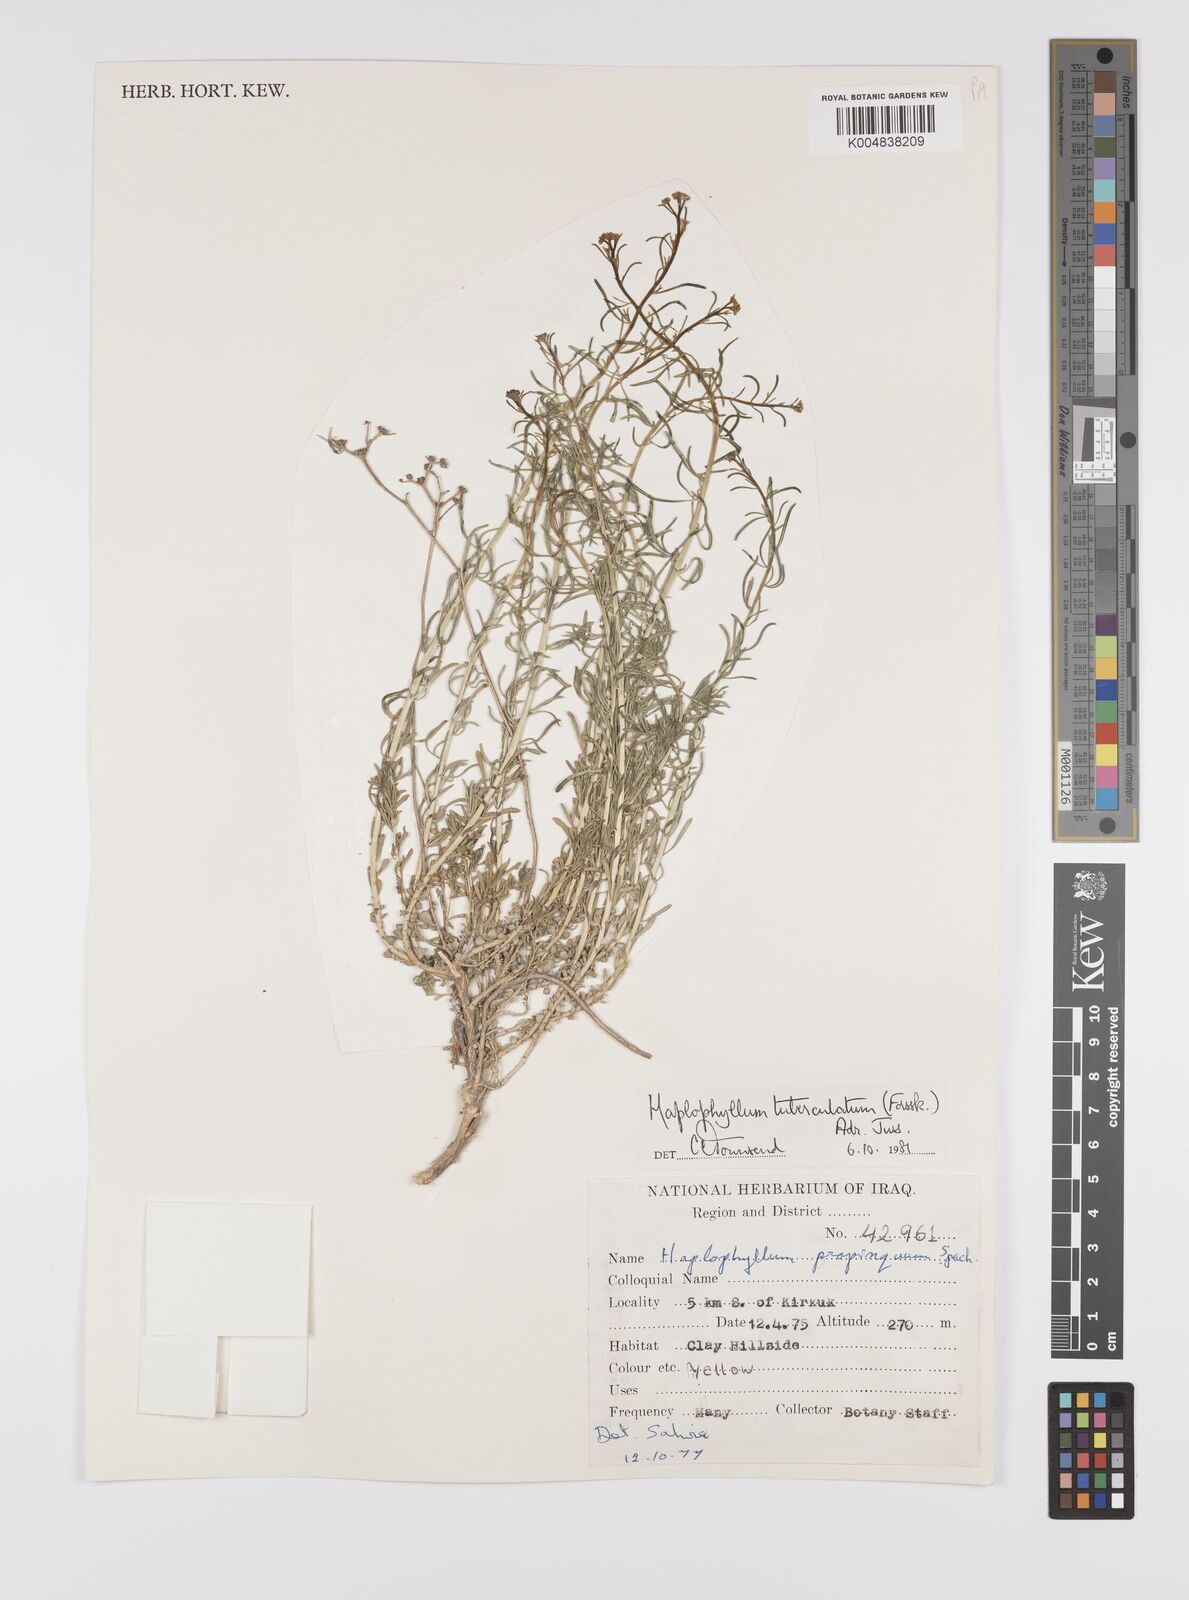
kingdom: Plantae
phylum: Tracheophyta
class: Magnoliopsida
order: Sapindales
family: Rutaceae
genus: Haplophyllum
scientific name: Haplophyllum tuberculatum
